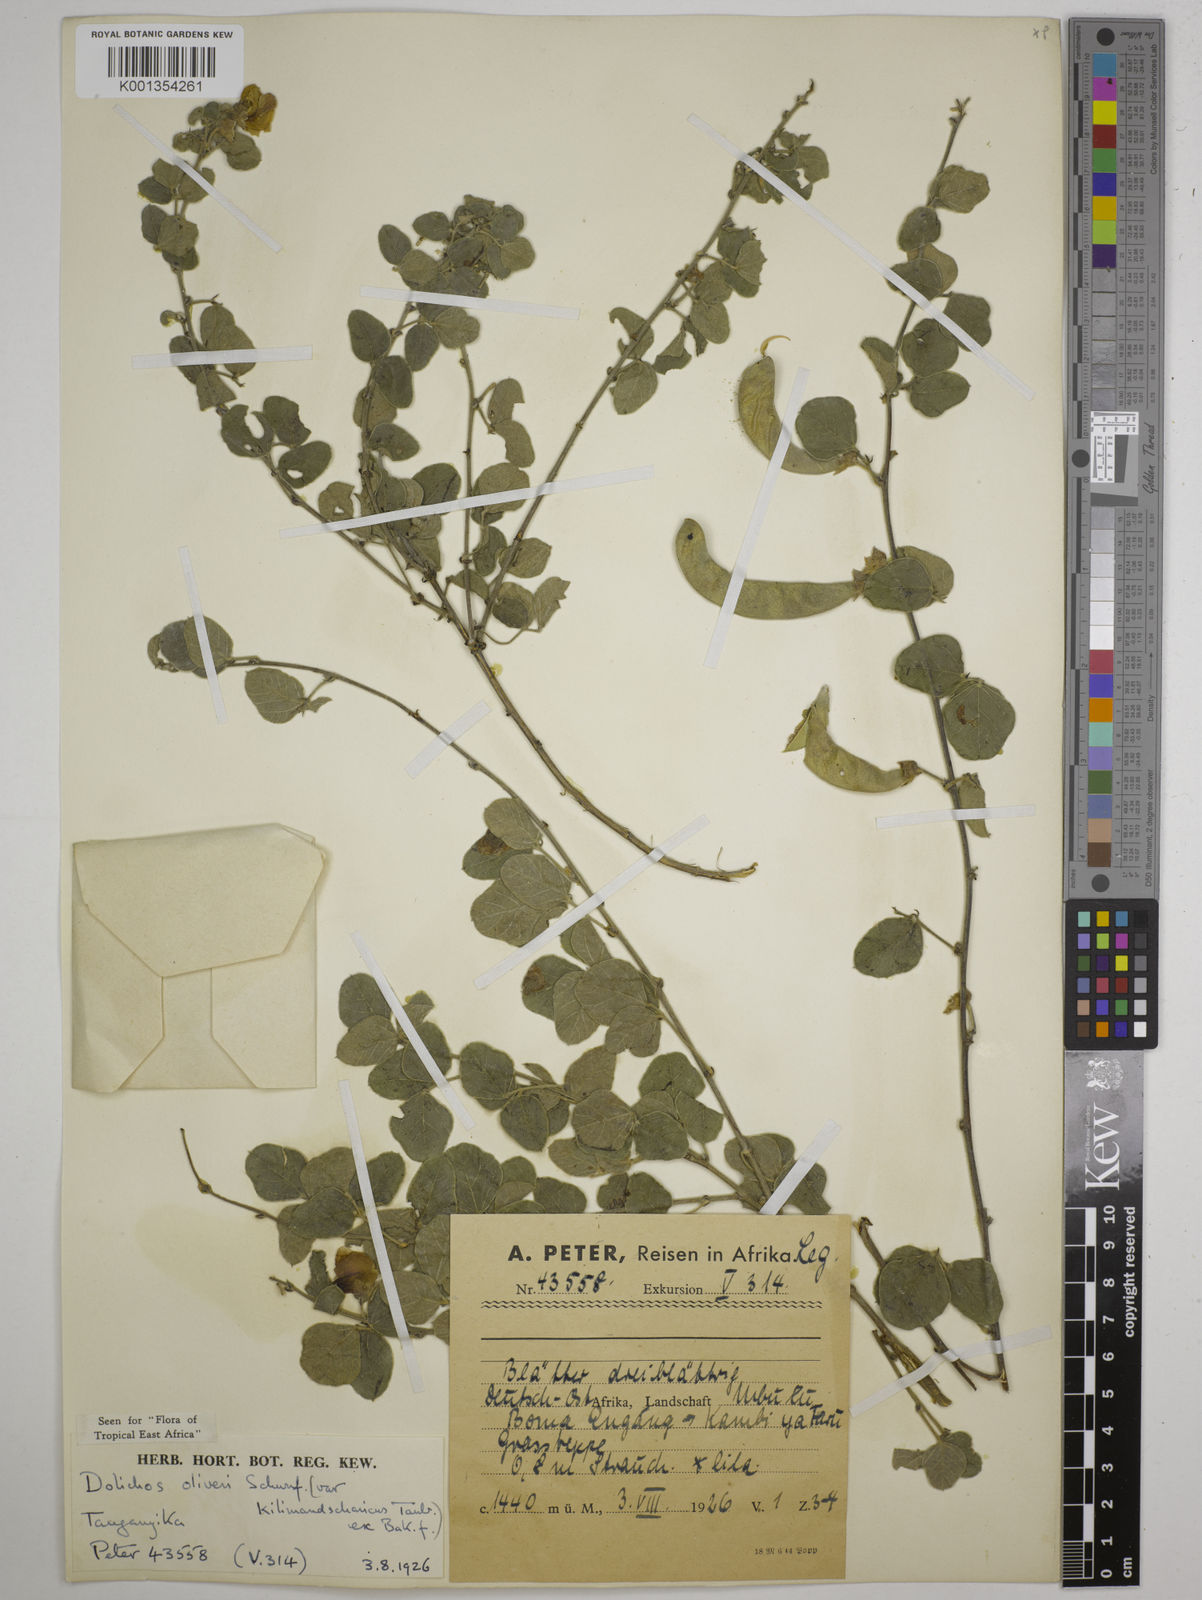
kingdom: Plantae
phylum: Tracheophyta
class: Magnoliopsida
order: Fabales
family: Fabaceae
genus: Dolichos
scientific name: Dolichos
